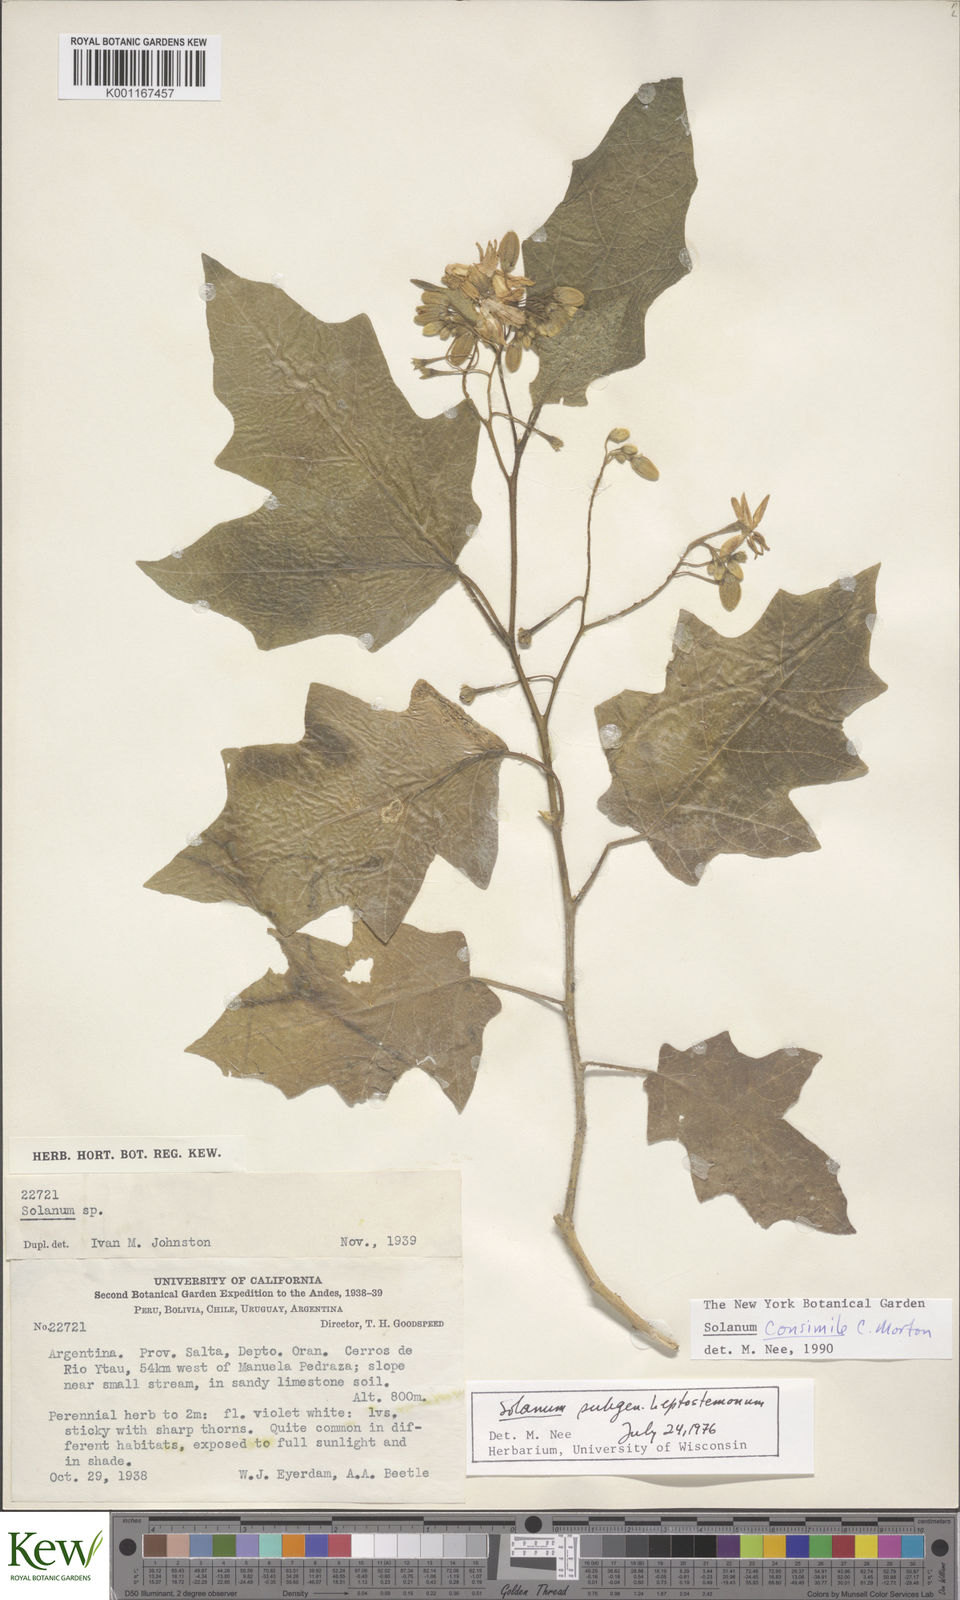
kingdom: Plantae
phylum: Tracheophyta
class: Magnoliopsida
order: Solanales
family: Solanaceae
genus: Solanum
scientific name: Solanum consimile
